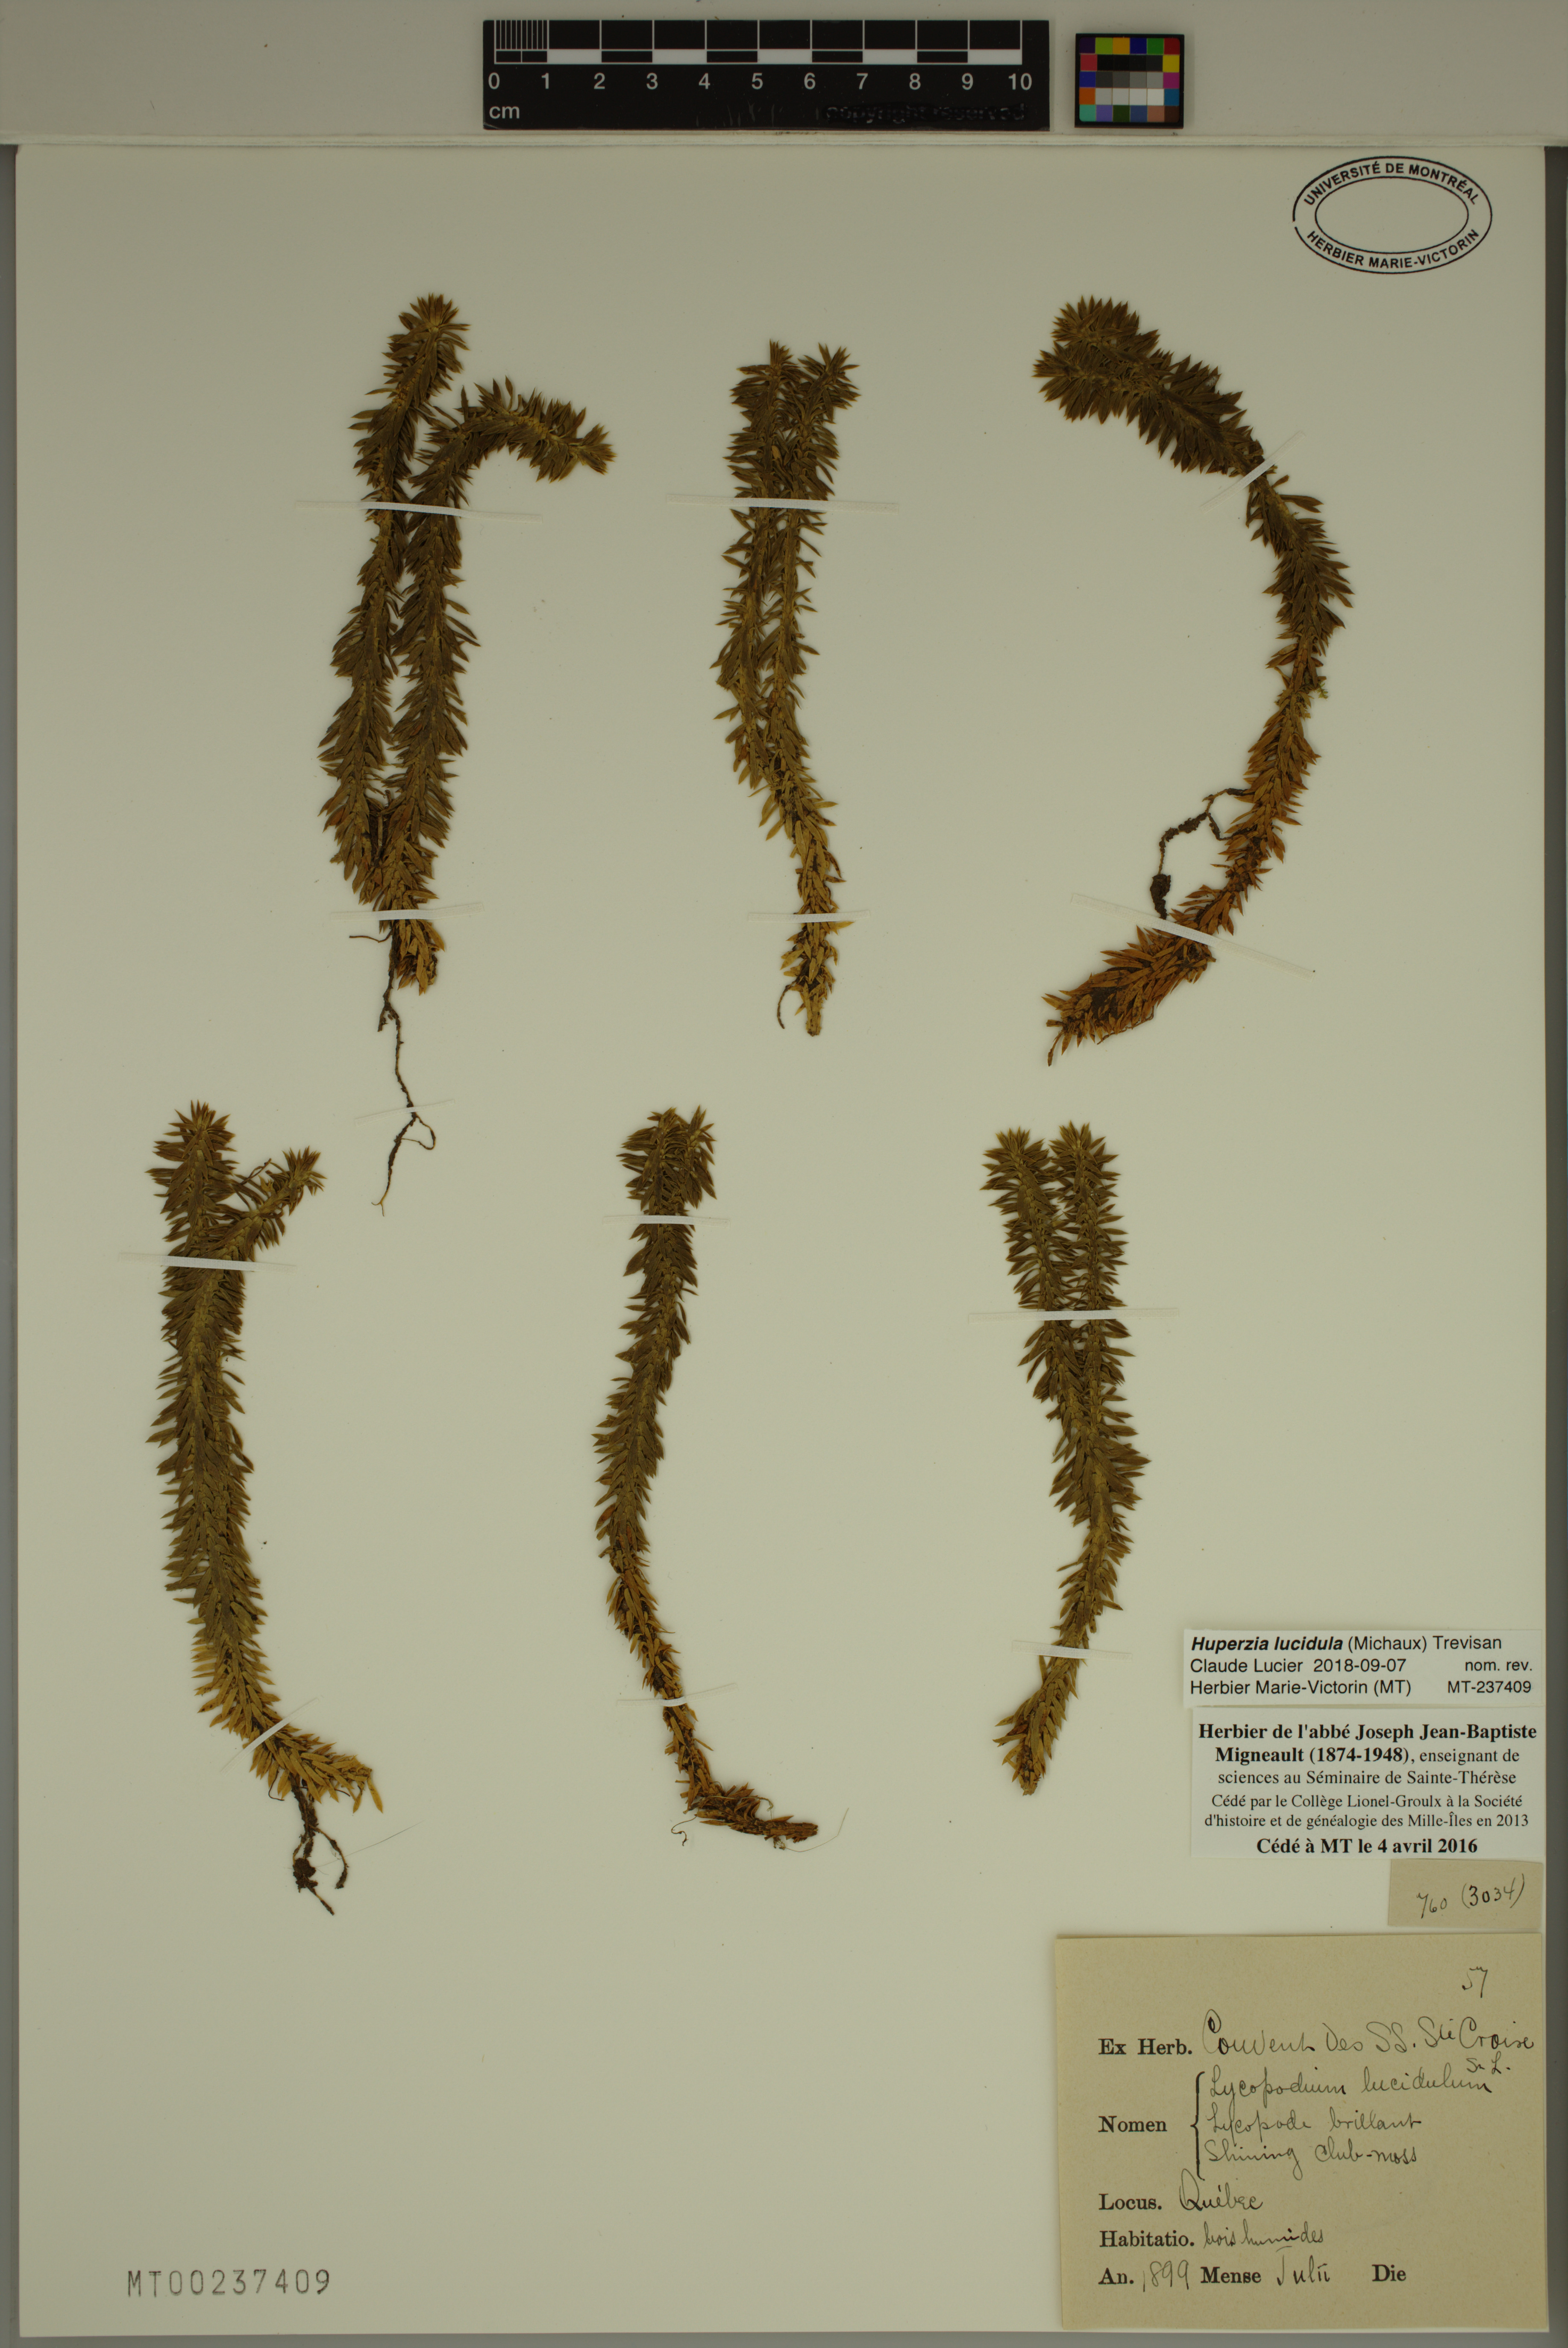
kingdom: Plantae
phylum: Tracheophyta
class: Lycopodiopsida
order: Lycopodiales
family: Lycopodiaceae
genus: Huperzia
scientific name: Huperzia lucidula
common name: Shining clubmoss
